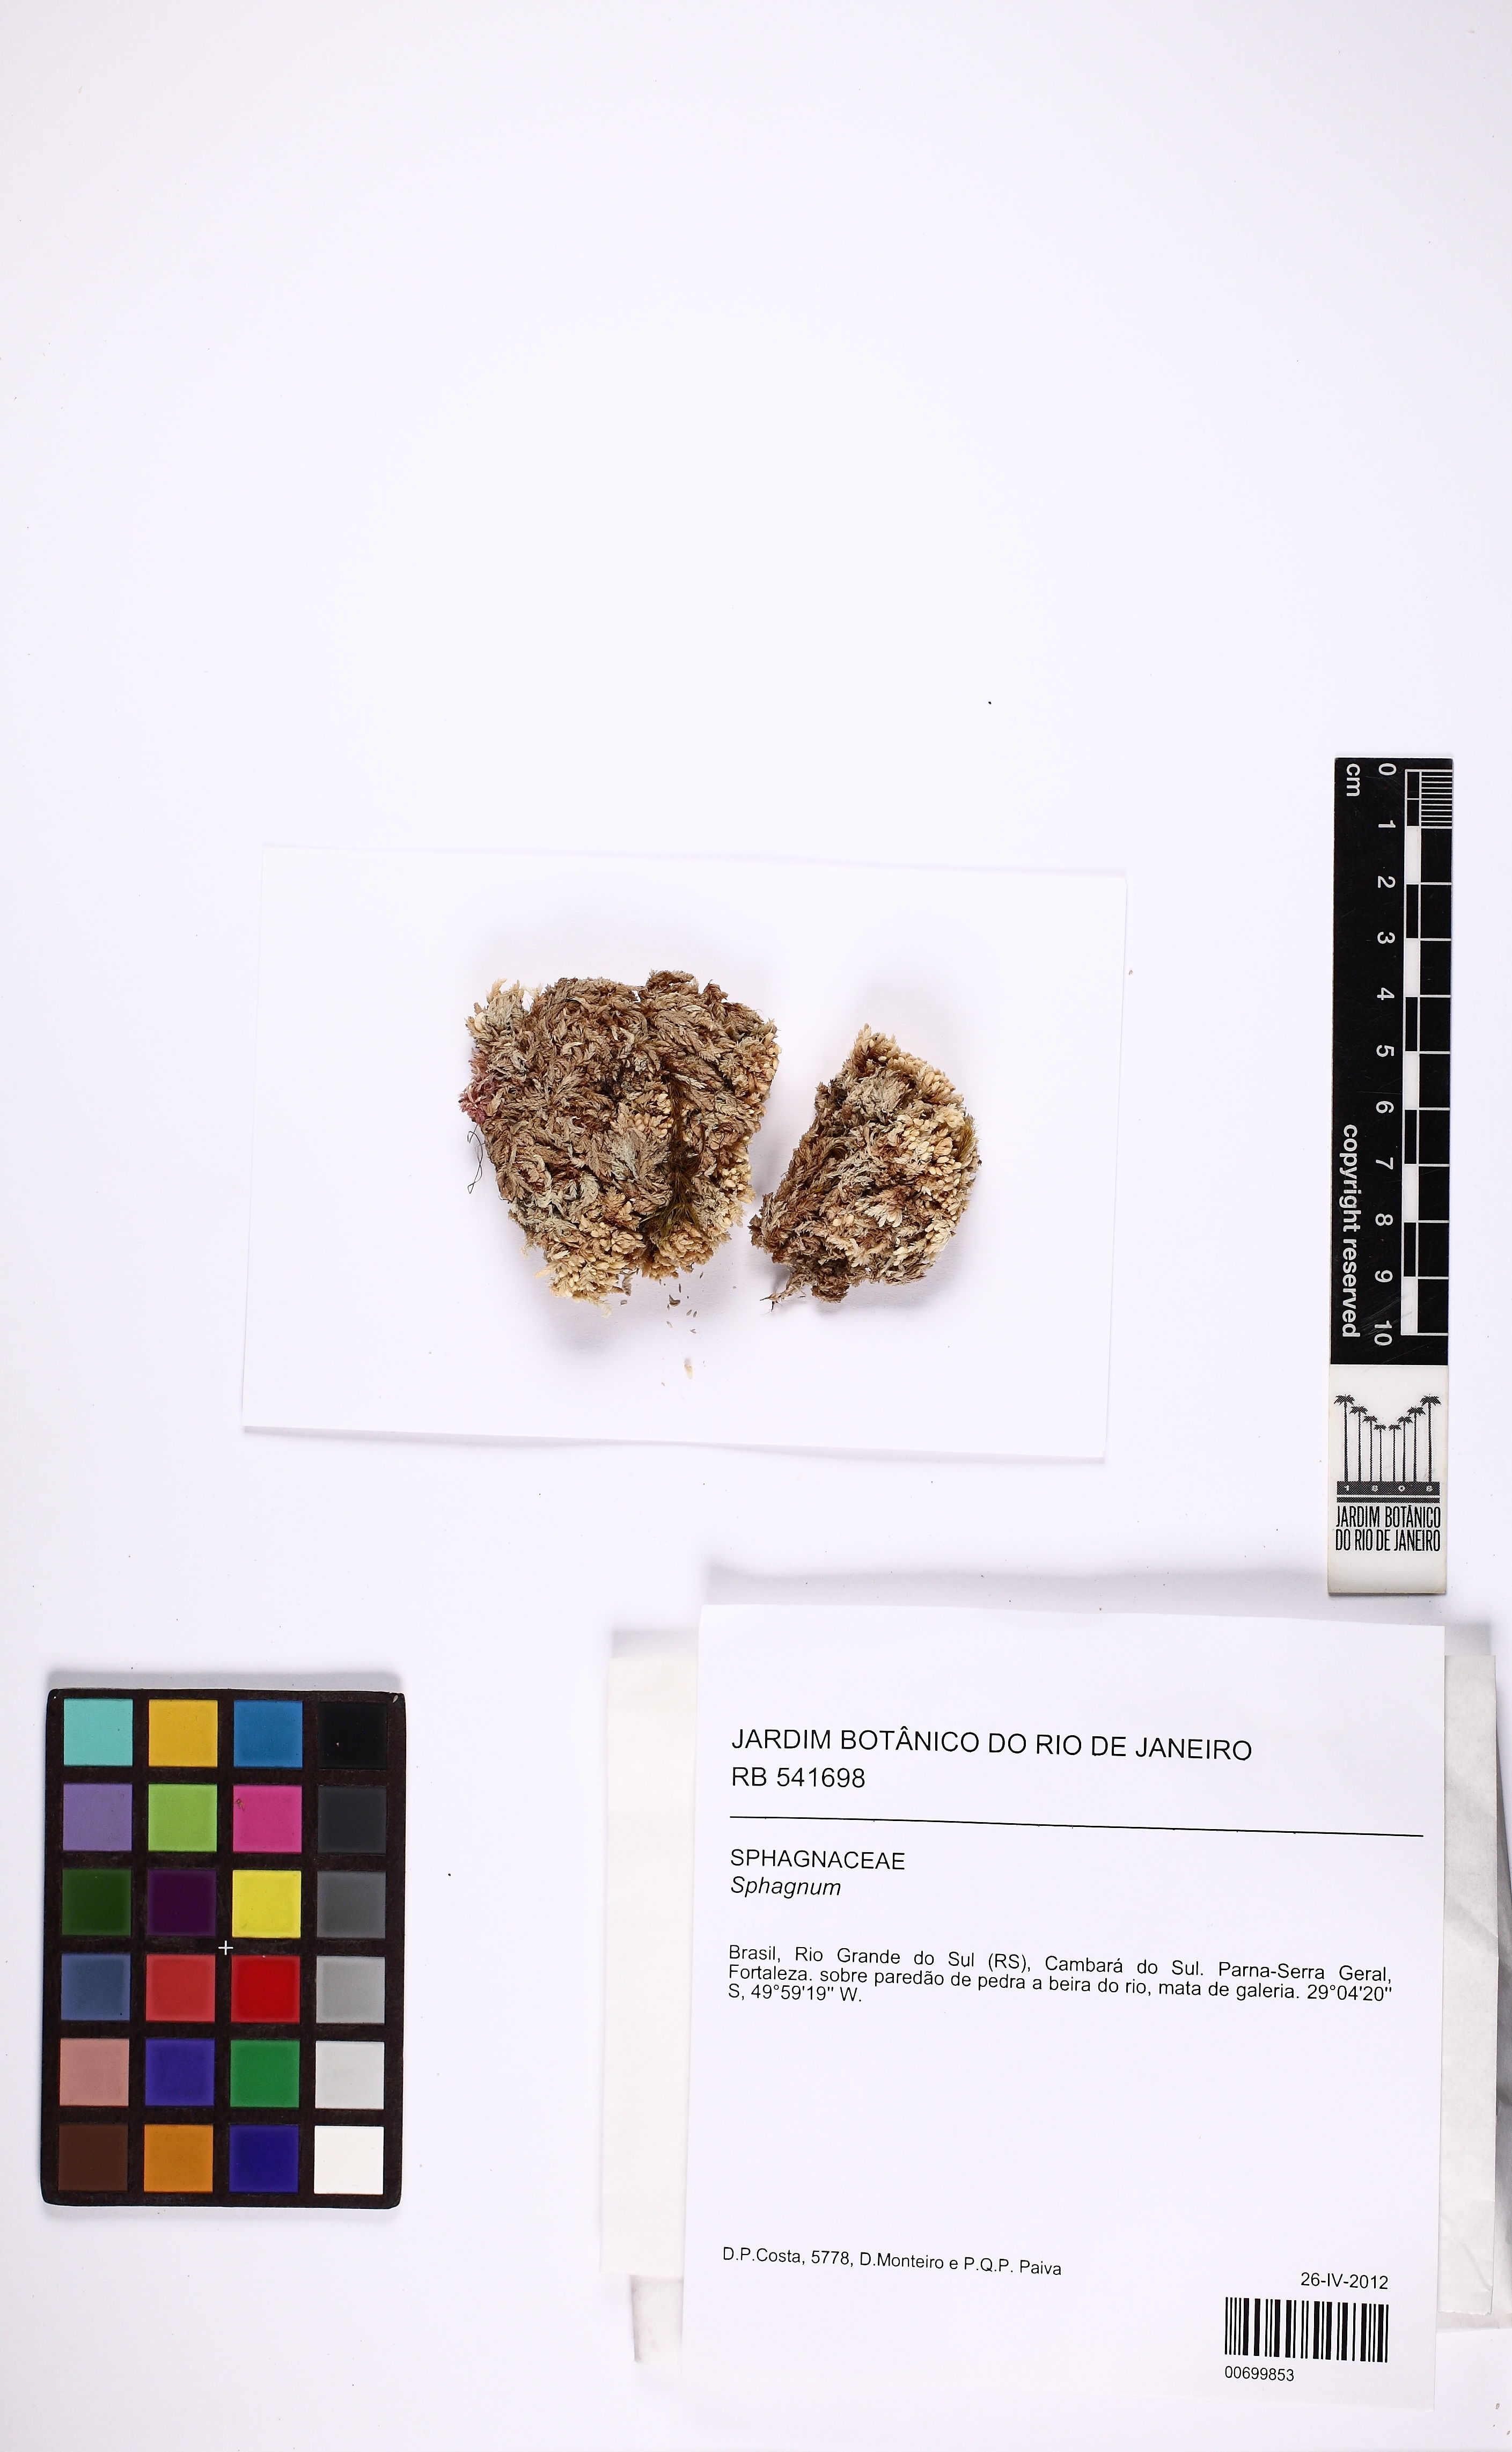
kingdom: Plantae
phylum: Bryophyta
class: Sphagnopsida
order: Sphagnales
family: Sphagnaceae
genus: Sphagnum
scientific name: Sphagnum
